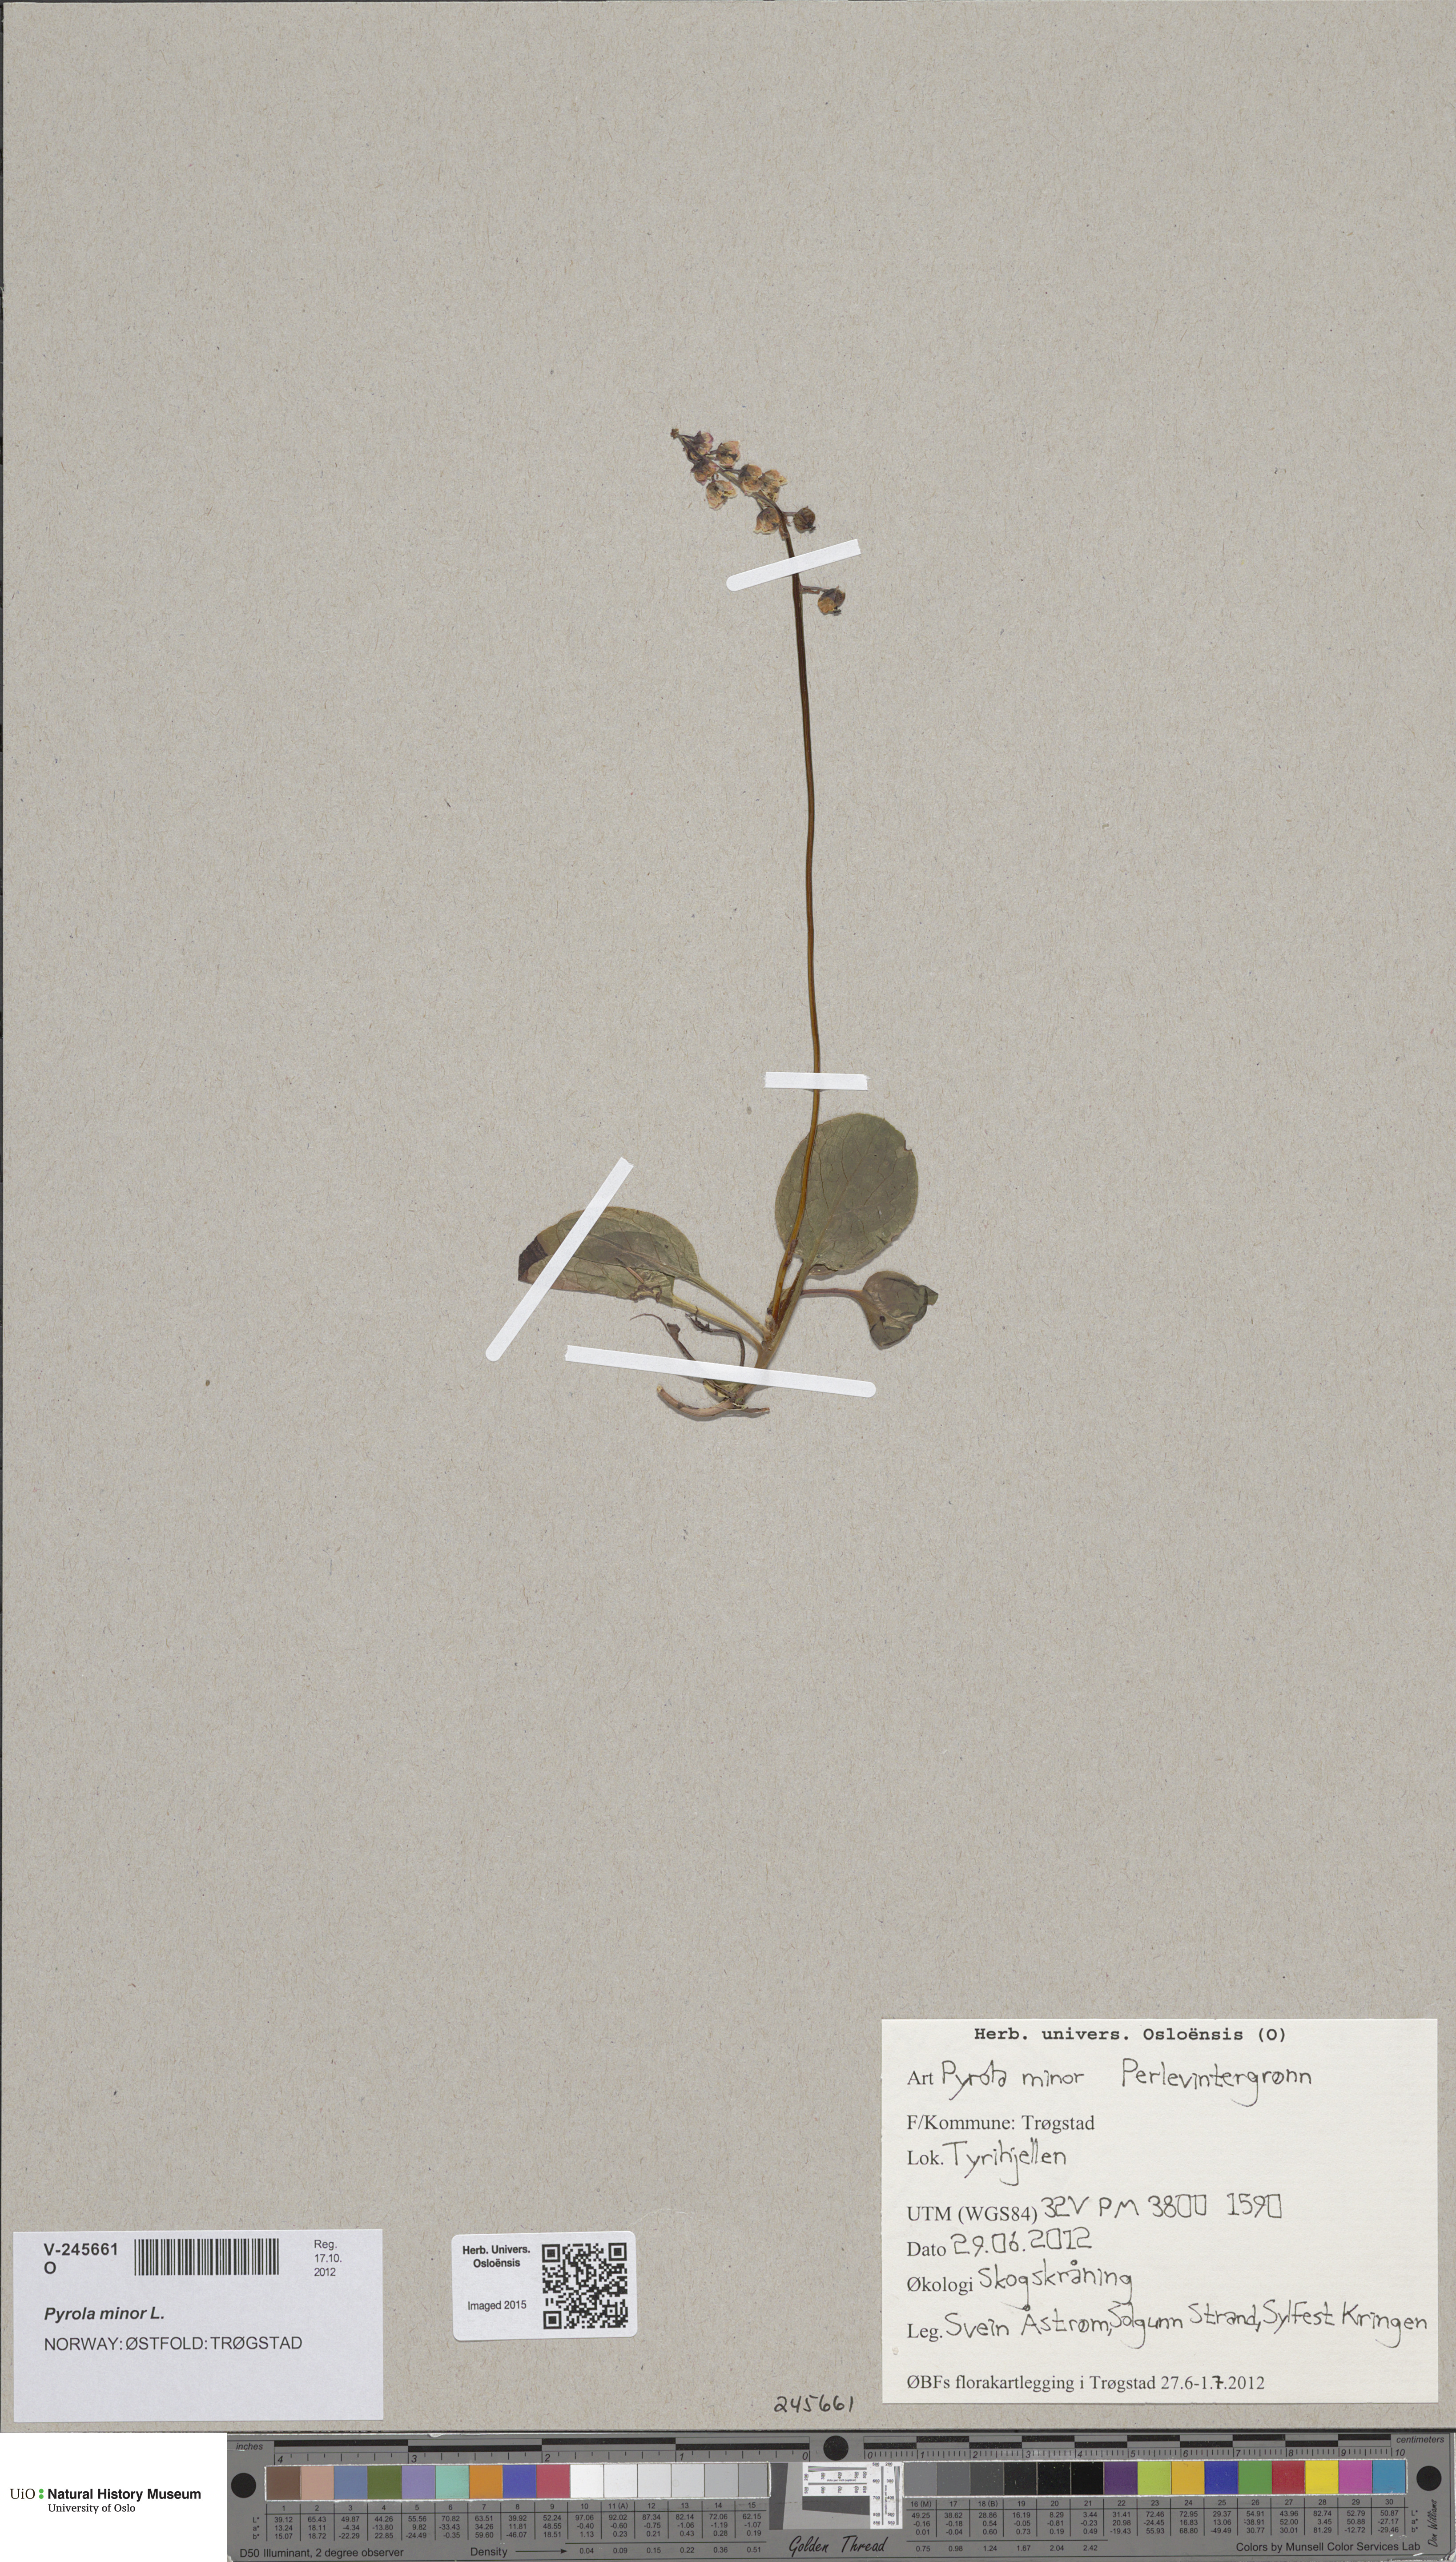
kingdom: Plantae
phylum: Tracheophyta
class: Magnoliopsida
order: Ericales
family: Ericaceae
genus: Pyrola
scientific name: Pyrola minor
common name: Common wintergreen
